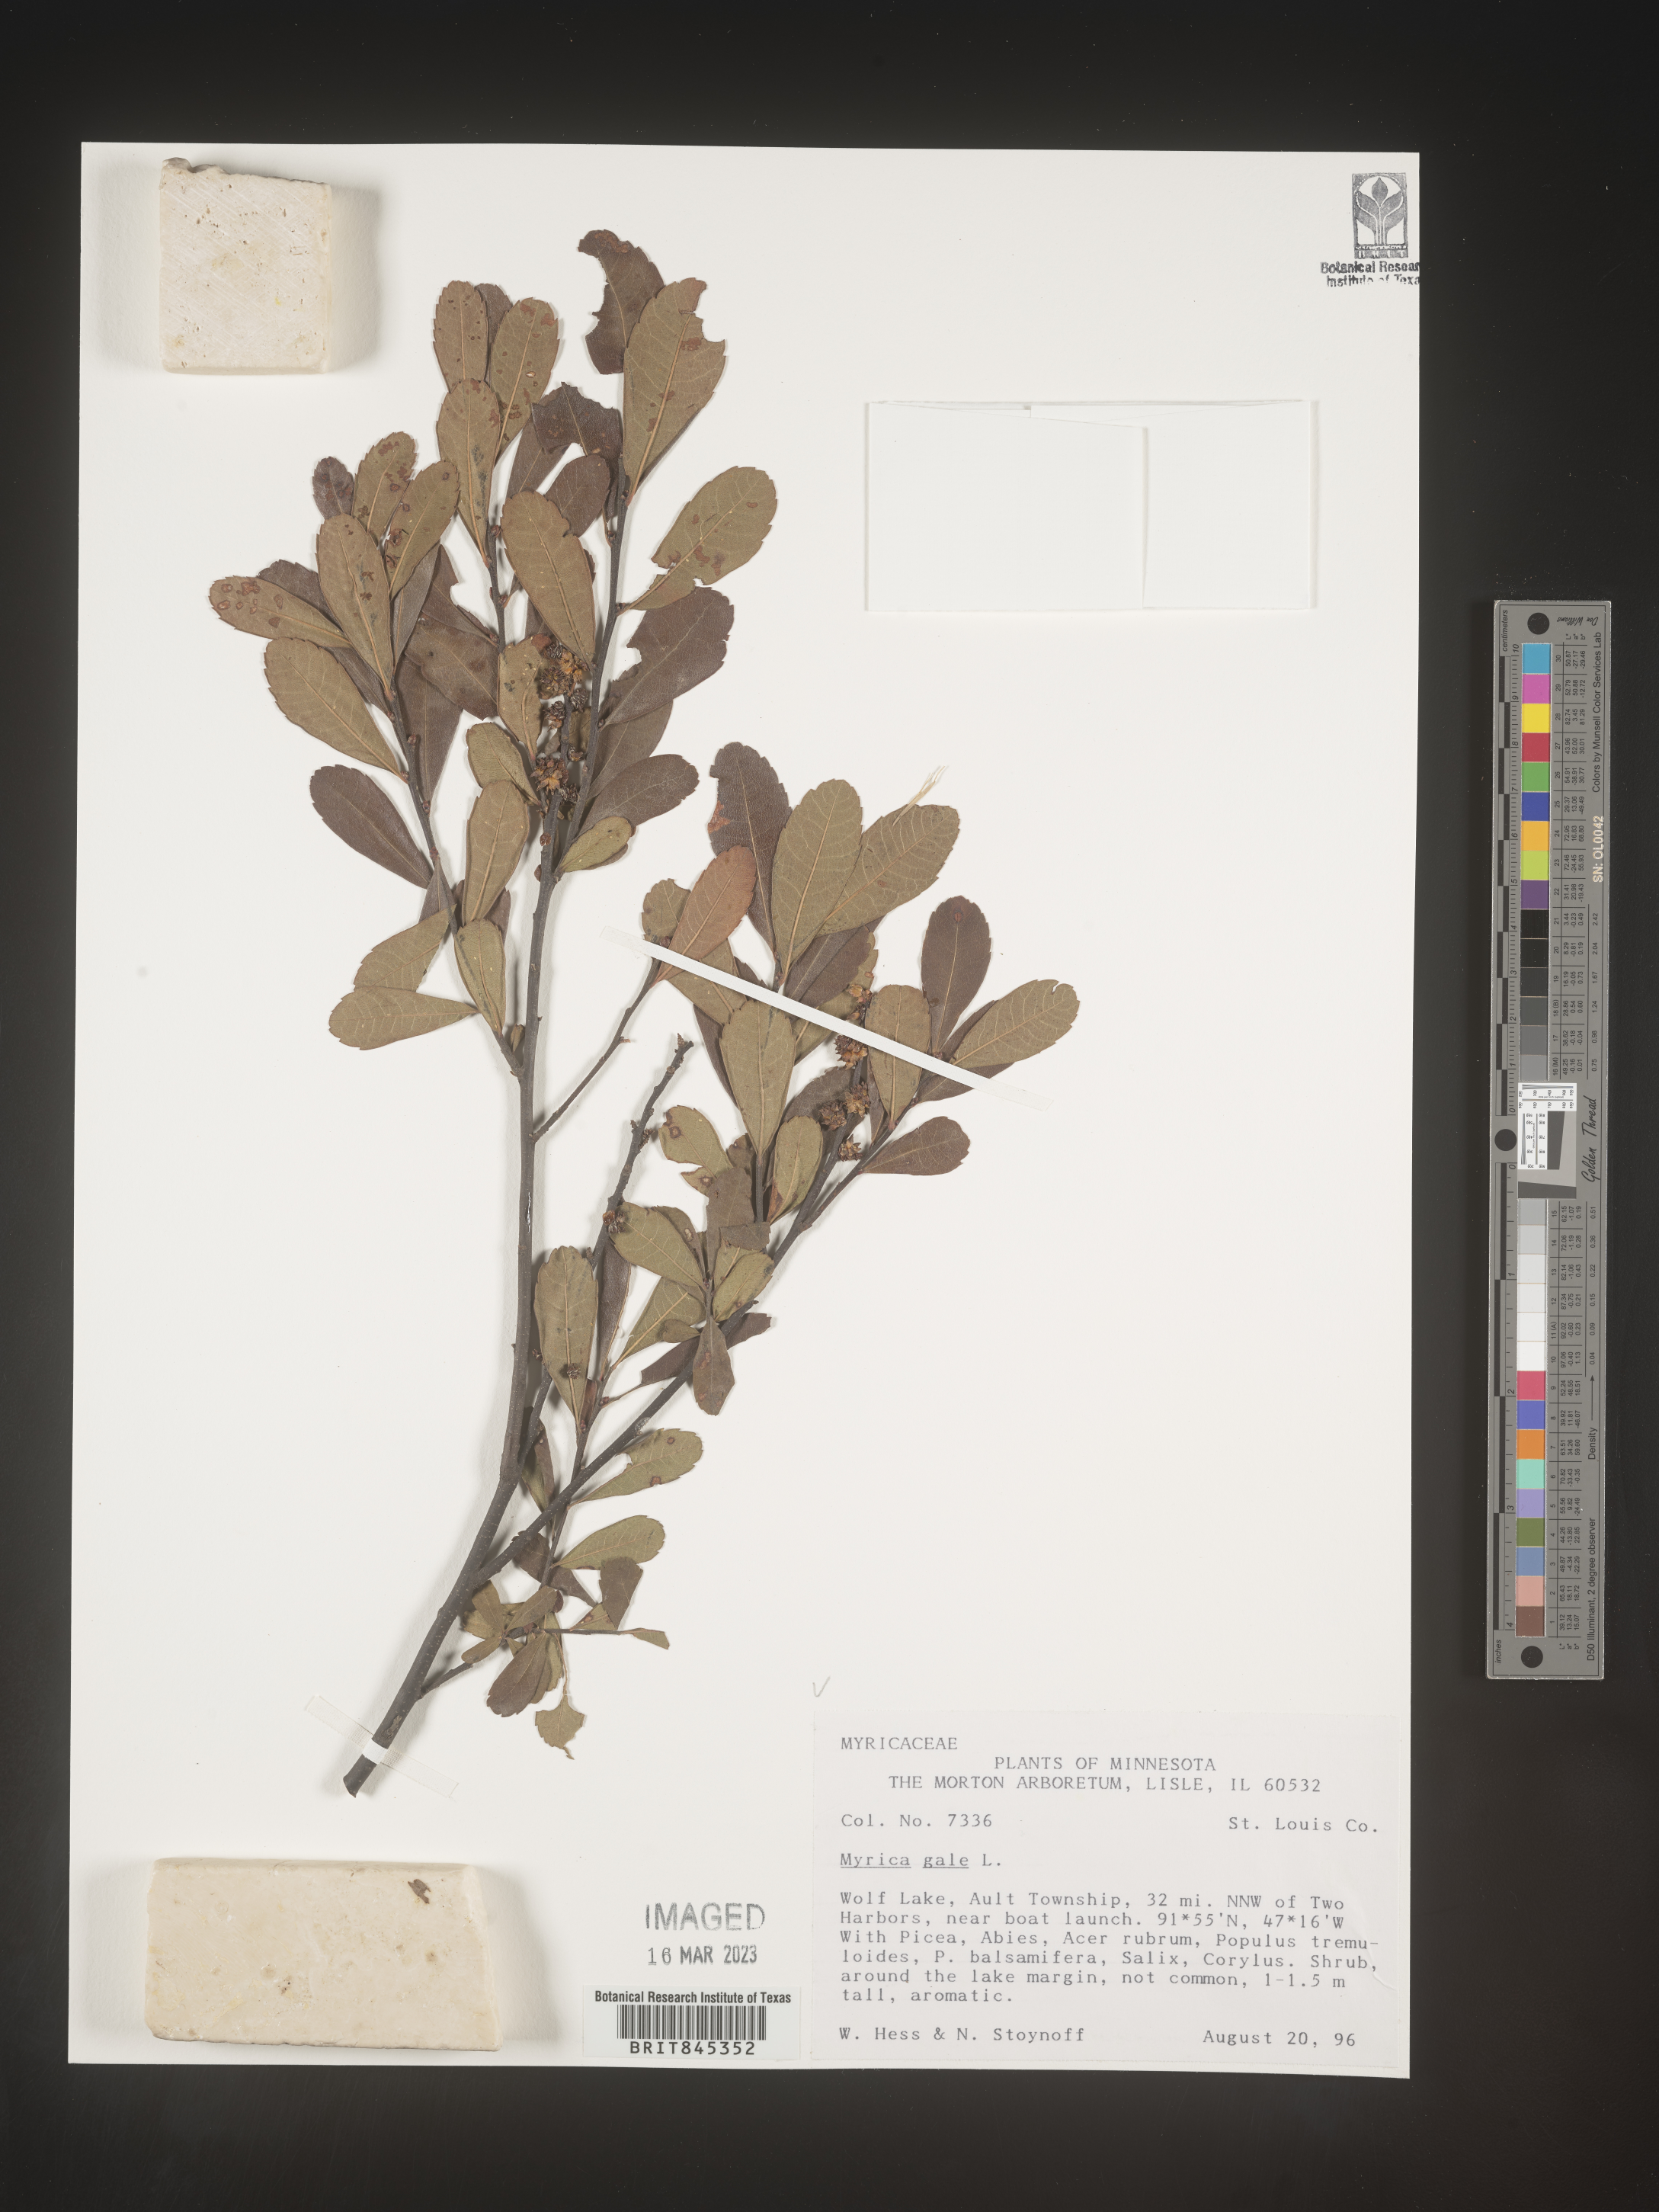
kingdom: Plantae
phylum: Tracheophyta
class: Magnoliopsida
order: Fagales
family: Myricaceae
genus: Myrica
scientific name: Myrica gale
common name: Sweet gale
